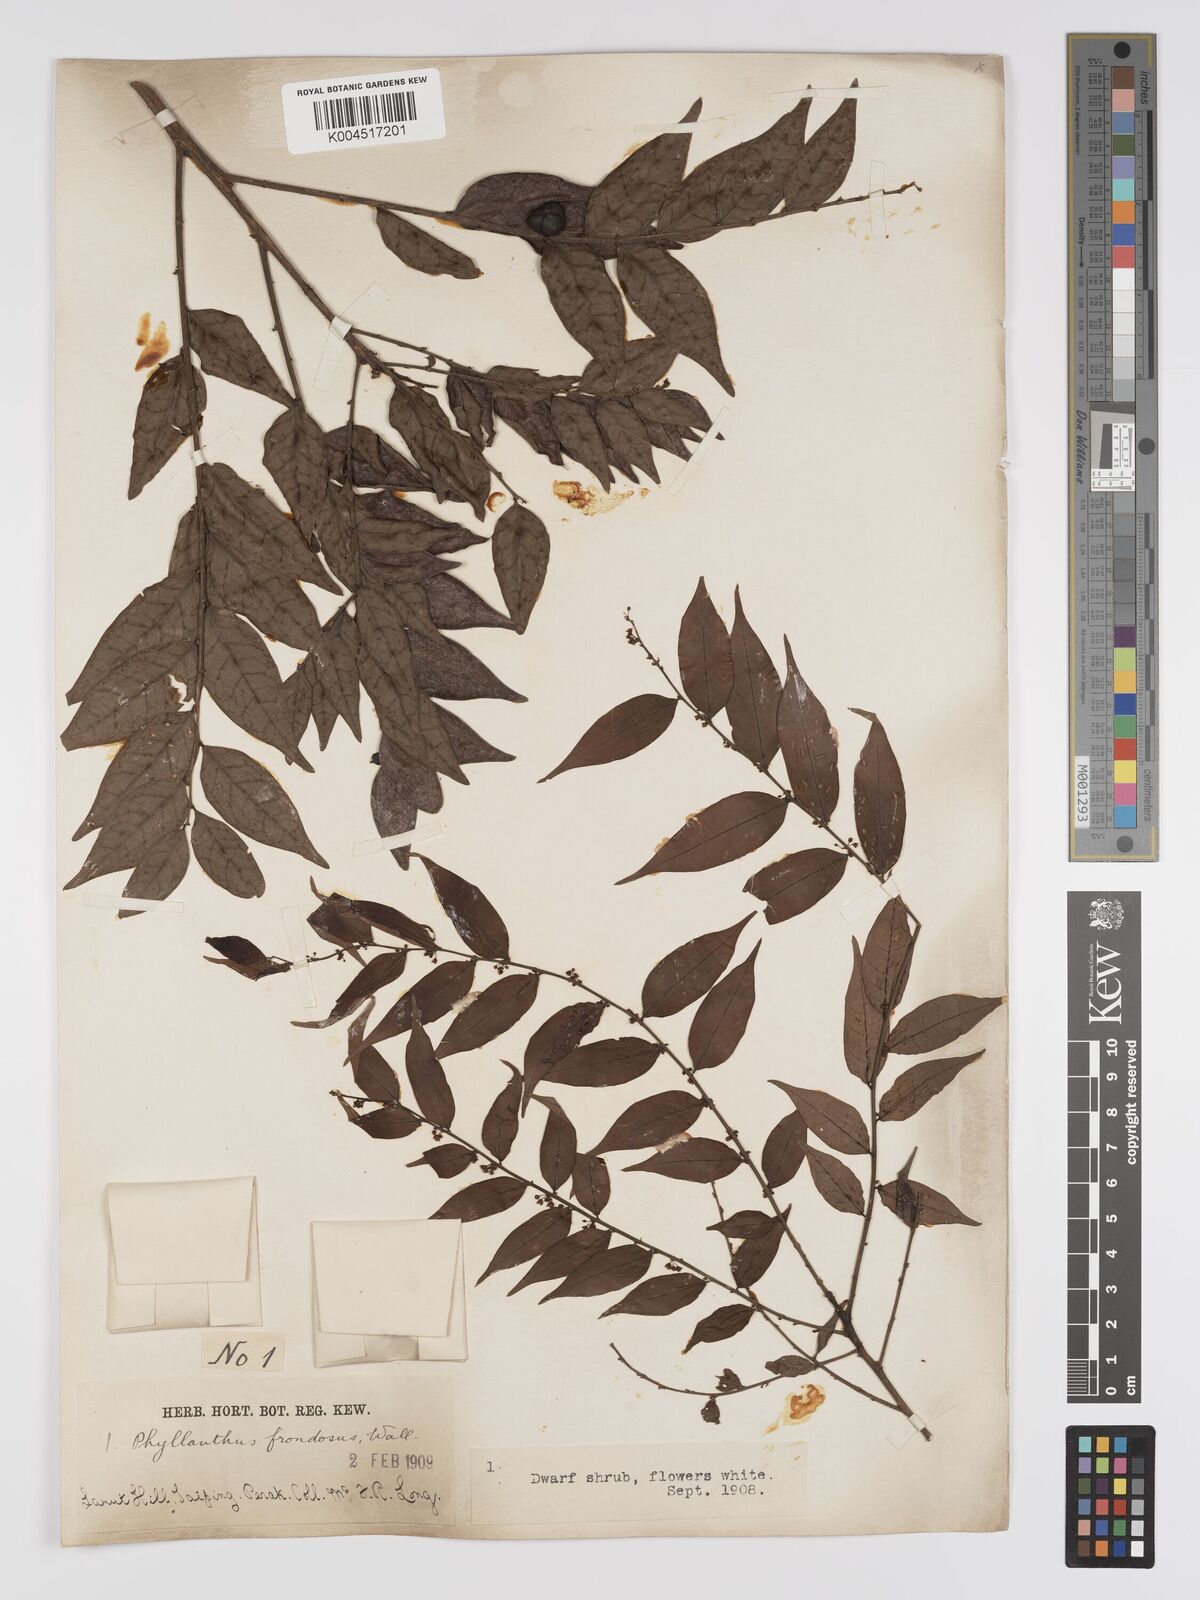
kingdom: Plantae
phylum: Tracheophyta
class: Magnoliopsida
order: Malpighiales
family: Phyllanthaceae
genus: Phyllanthus
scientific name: Phyllanthus
